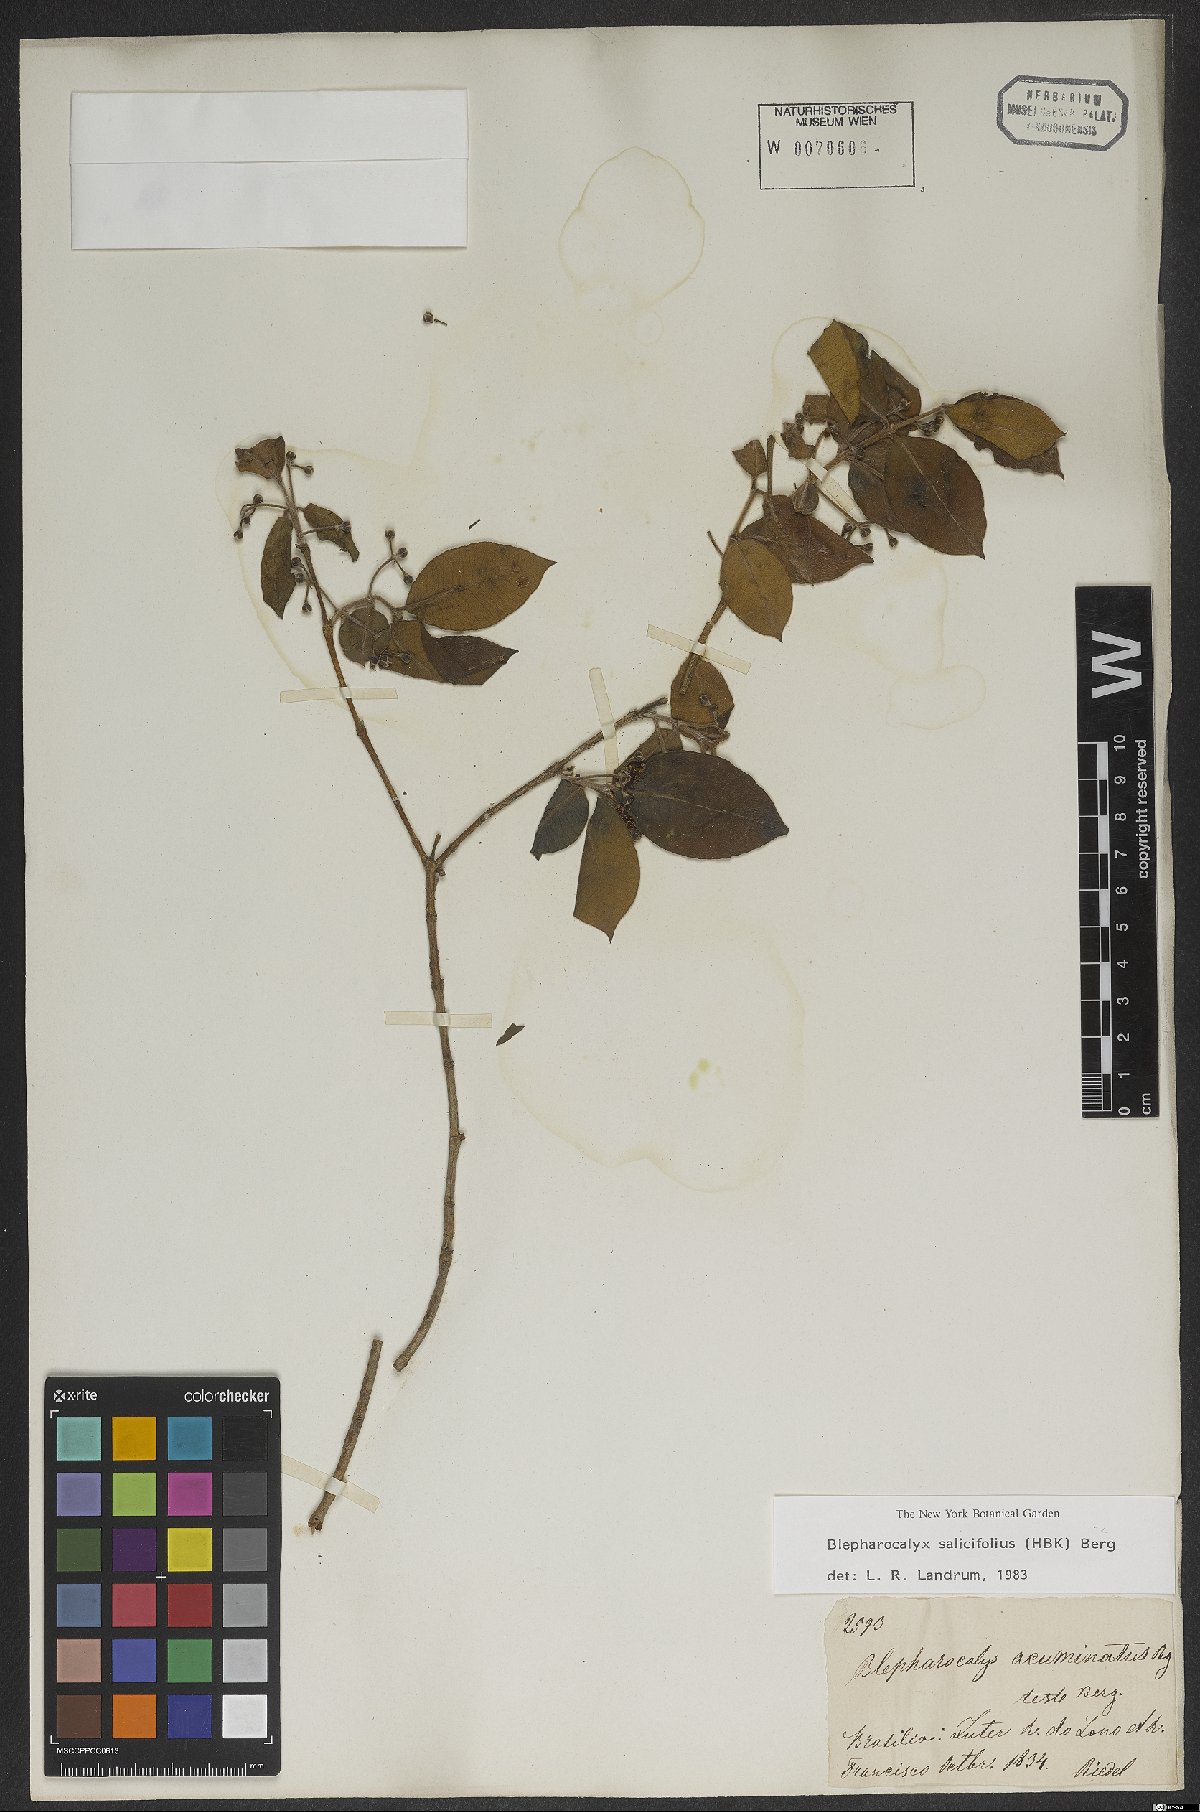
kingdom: Plantae
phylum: Tracheophyta
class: Magnoliopsida
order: Myrtales
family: Myrtaceae
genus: Blepharocalyx
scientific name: Blepharocalyx salicifolius
